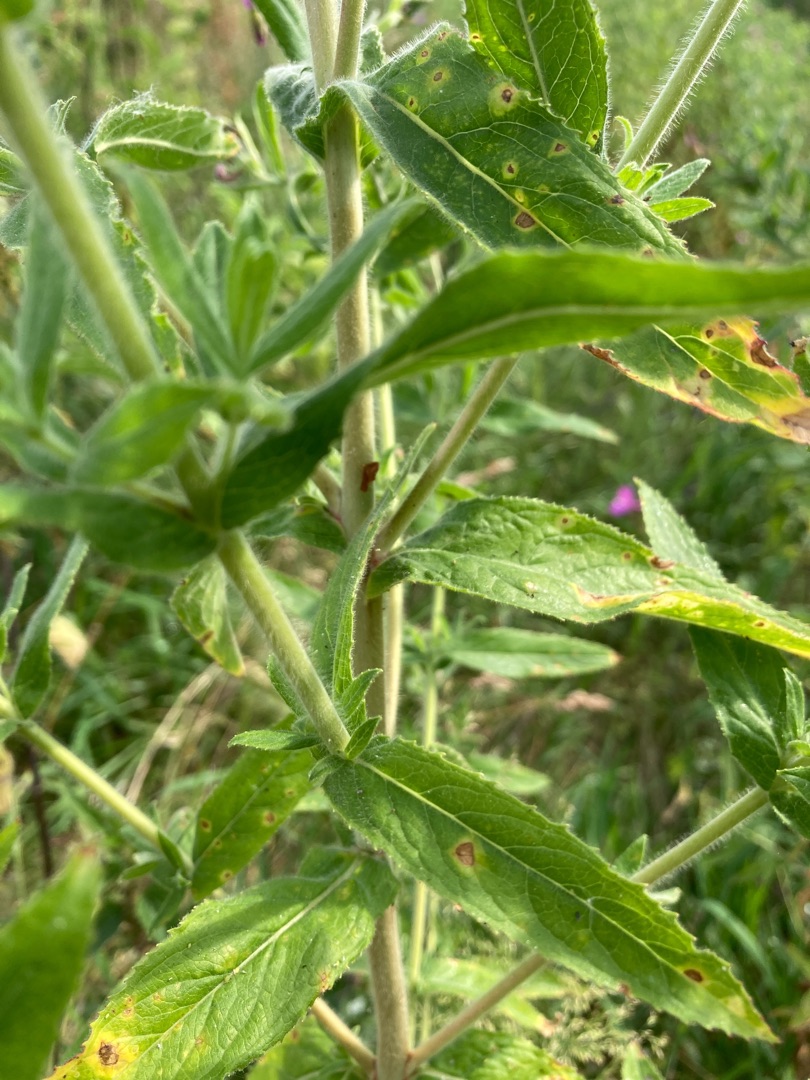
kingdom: Plantae
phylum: Tracheophyta
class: Magnoliopsida
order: Myrtales
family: Onagraceae
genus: Epilobium
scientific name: Epilobium hirsutum
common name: Lådden dueurt
